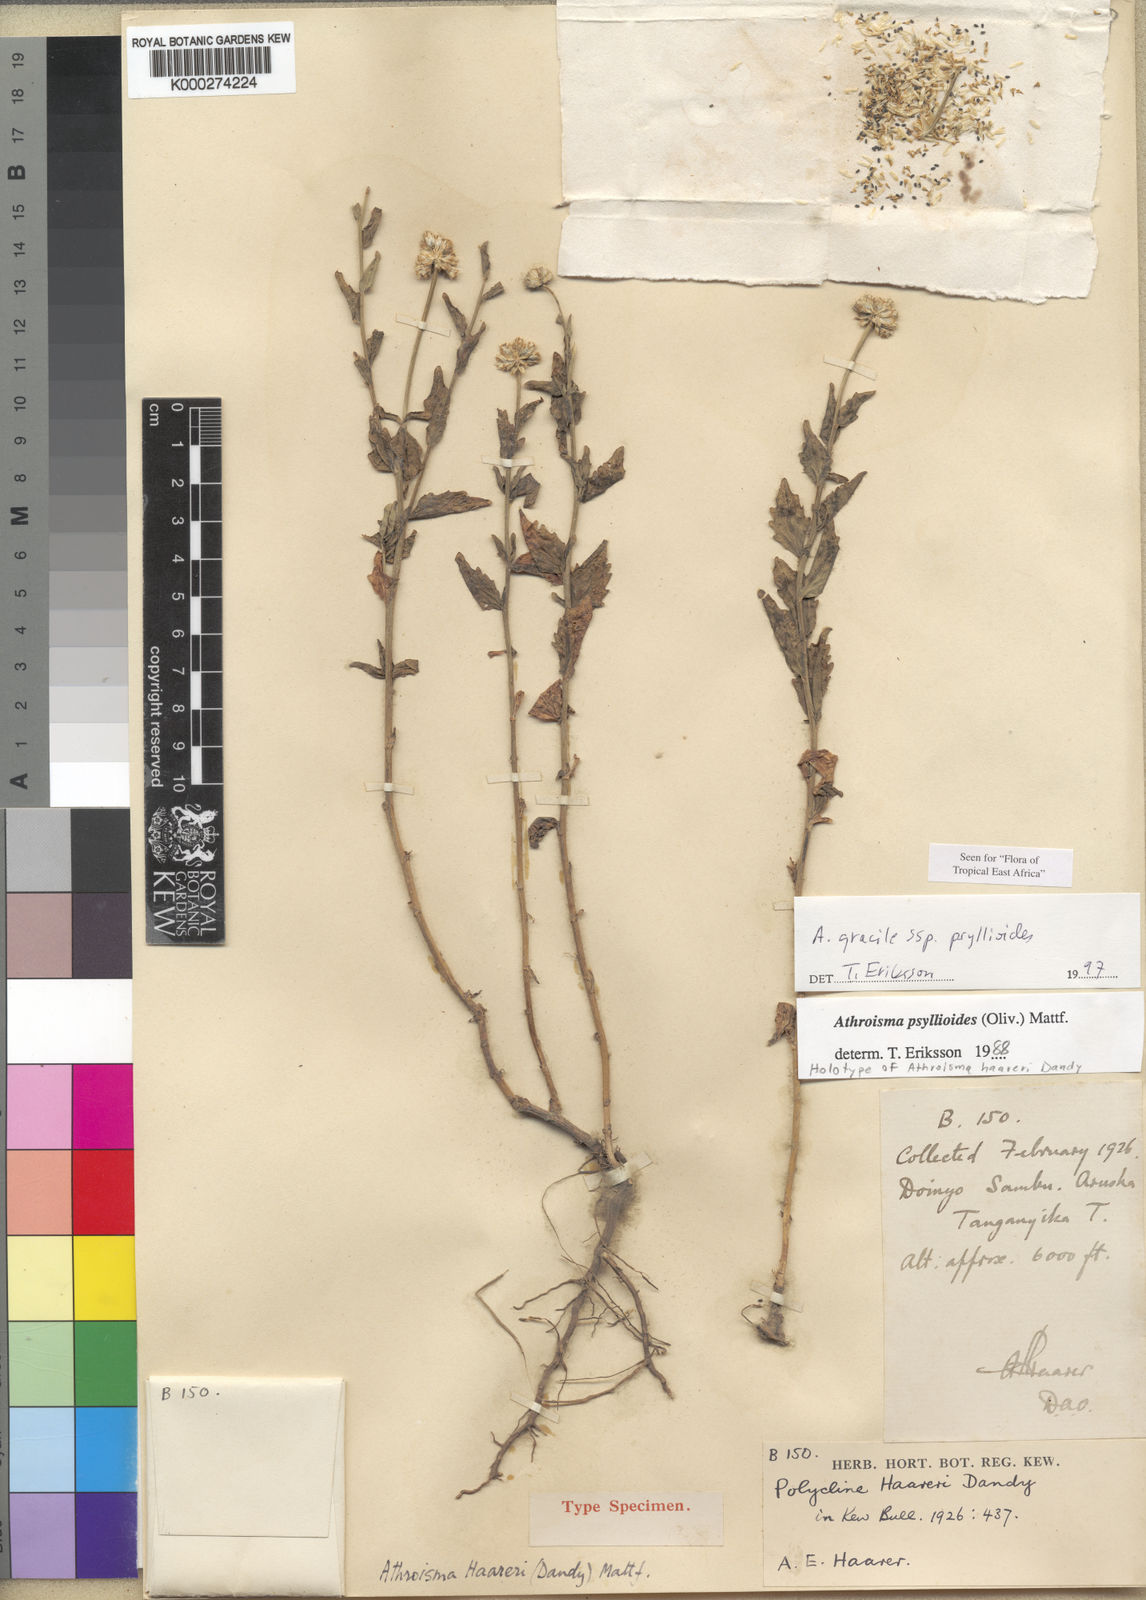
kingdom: Plantae
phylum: Tracheophyta
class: Magnoliopsida
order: Asterales
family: Asteraceae
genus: Athroisma
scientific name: Athroisma gracile
